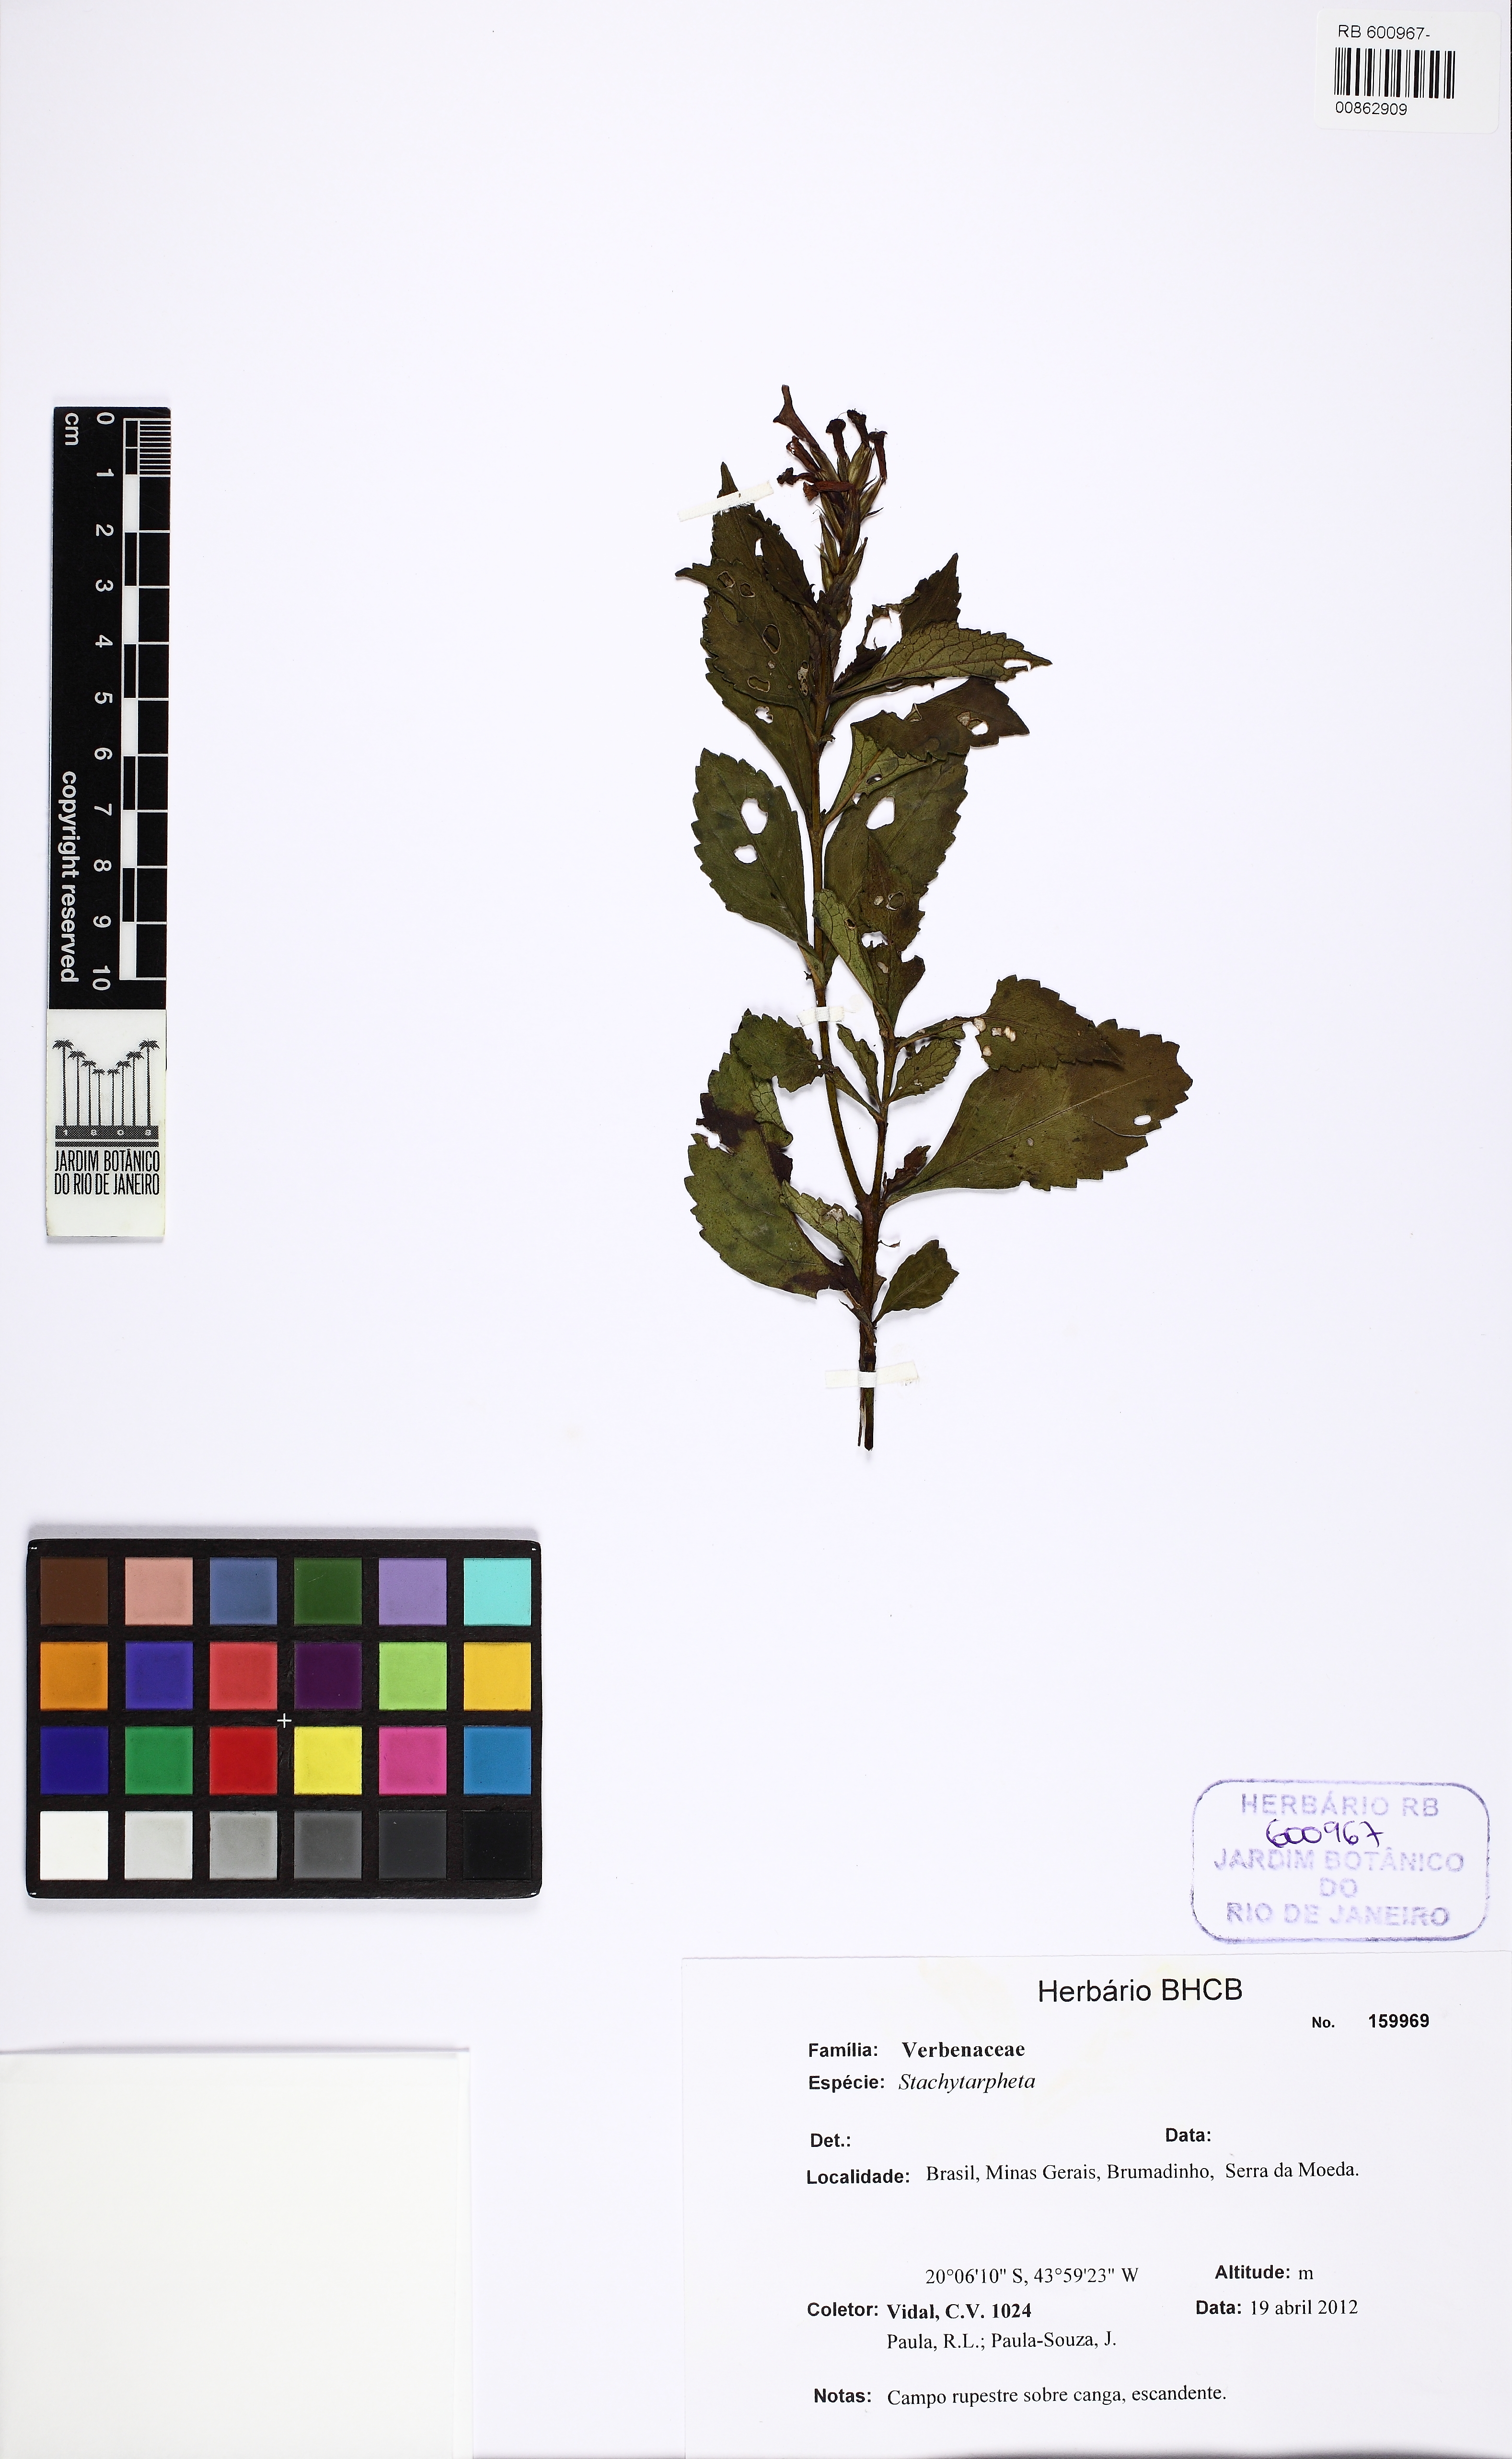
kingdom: Plantae
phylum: Tracheophyta
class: Magnoliopsida
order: Lamiales
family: Verbenaceae
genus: Stachytarpheta
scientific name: Stachytarpheta glabra
